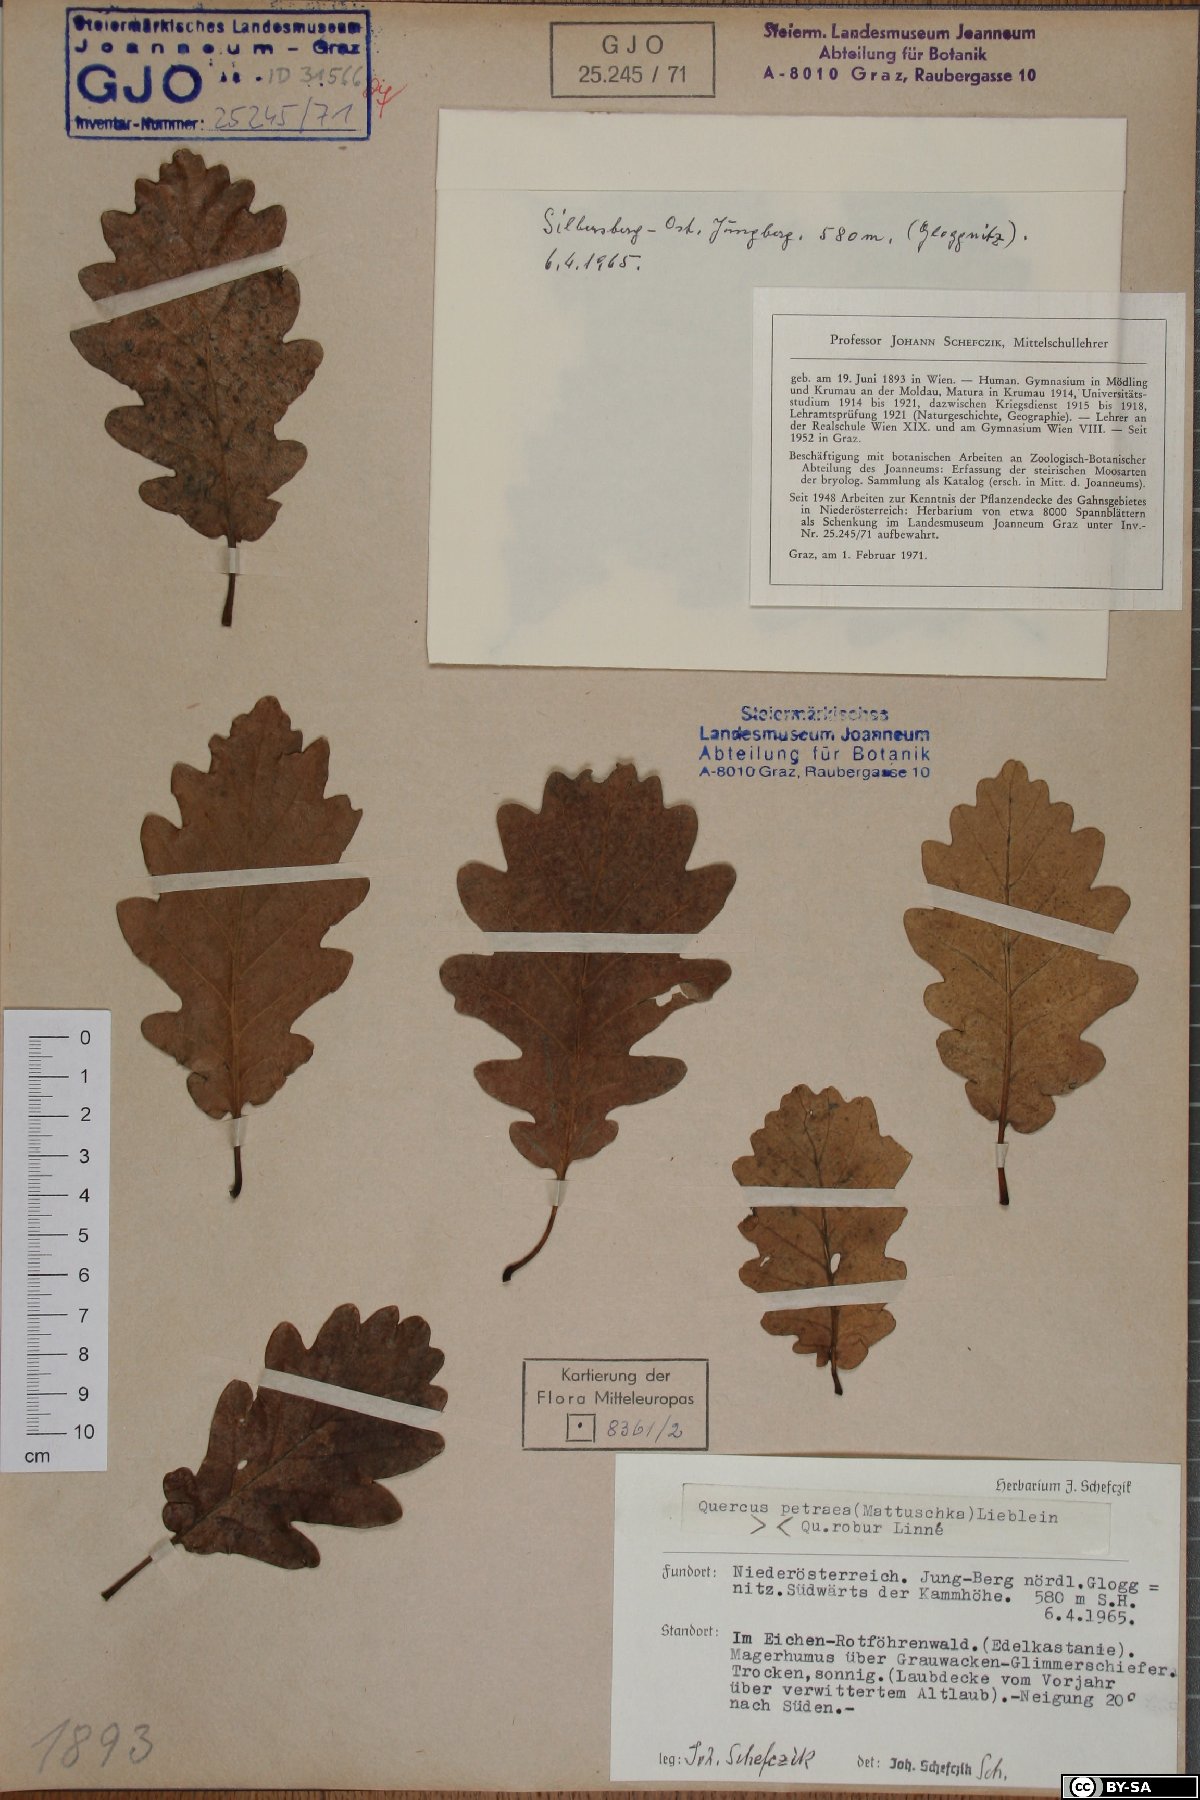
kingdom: Plantae
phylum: Tracheophyta
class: Magnoliopsida
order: Fagales
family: Fagaceae
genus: Quercus
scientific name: Quercus petraea
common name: Sessile oak
